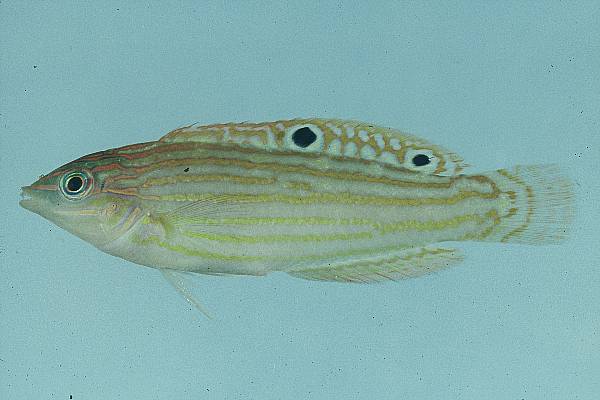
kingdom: Animalia
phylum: Chordata
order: Perciformes
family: Labridae
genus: Halichoeres
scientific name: Halichoeres cosmetus
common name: Adorned wrasse
